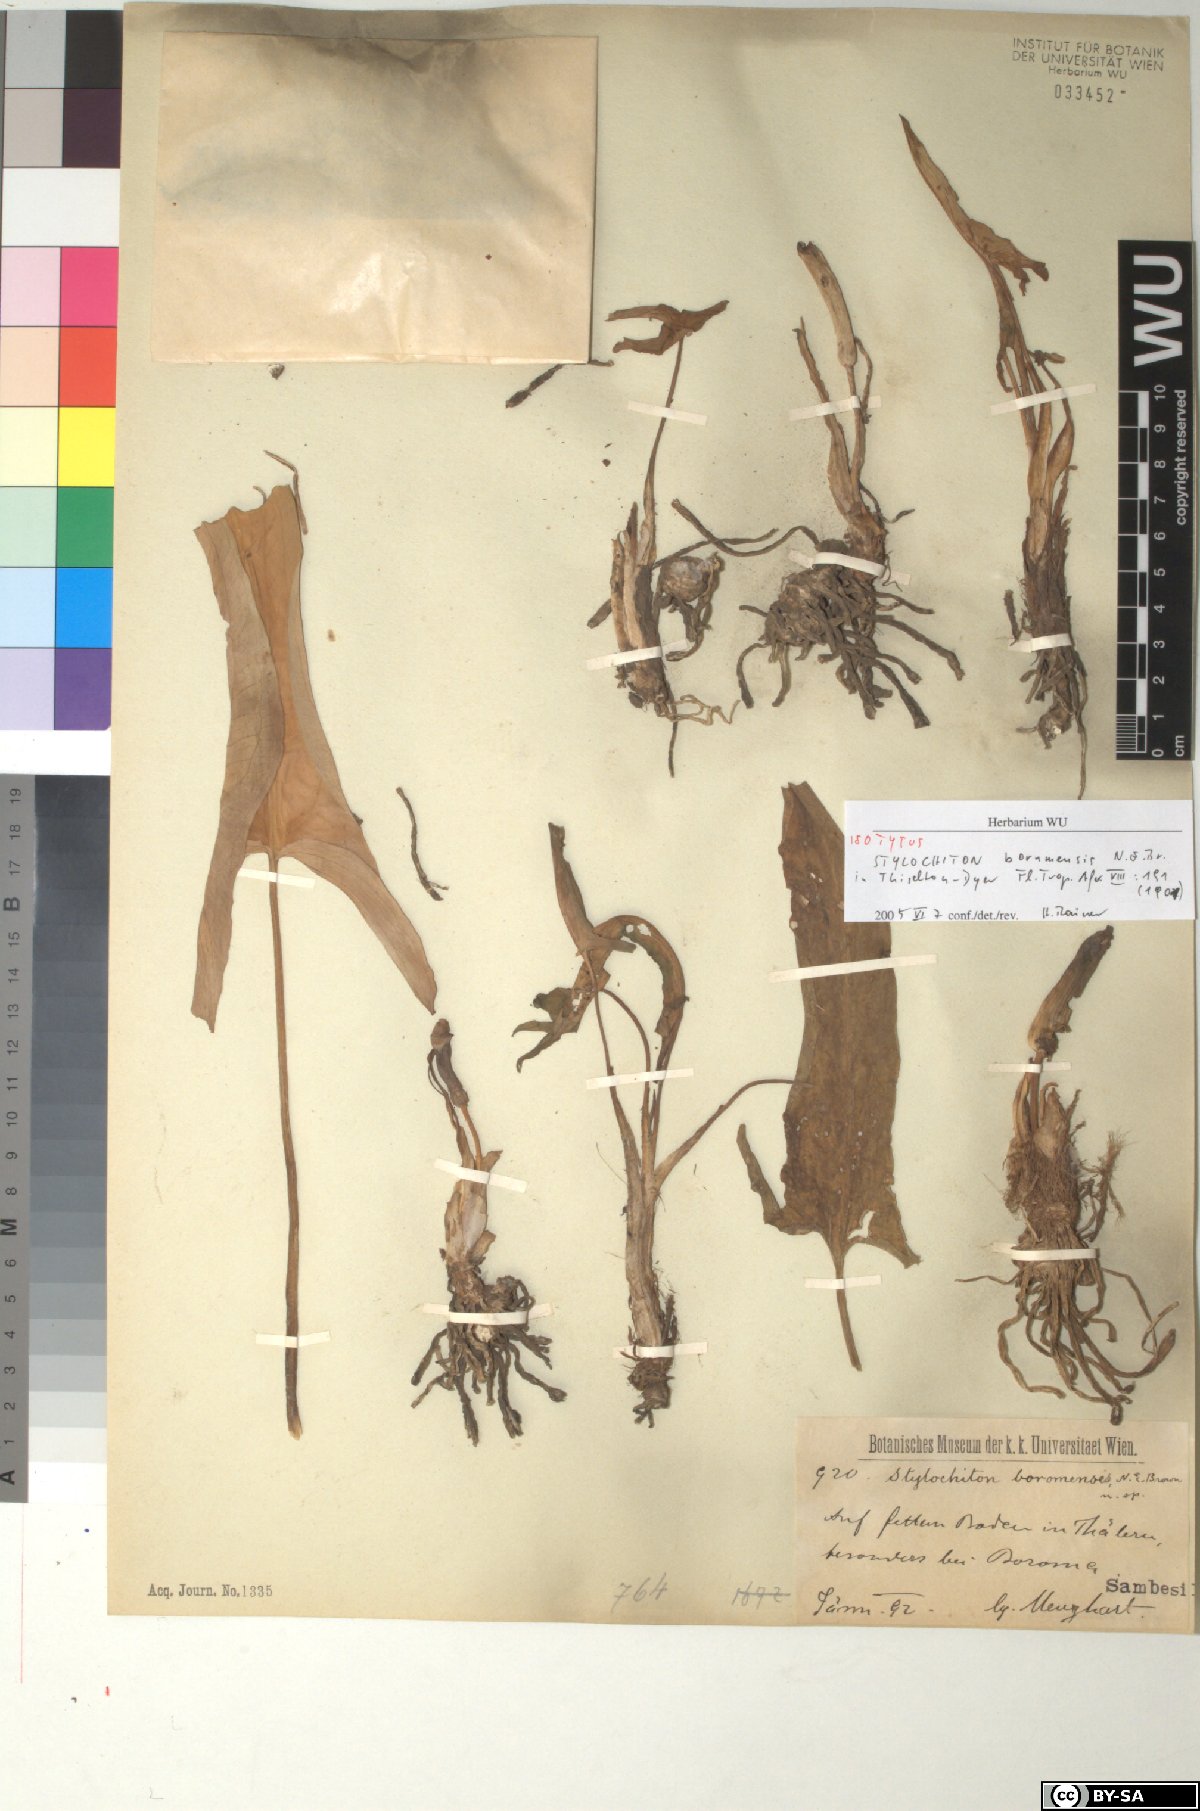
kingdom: Plantae
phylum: Tracheophyta
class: Liliopsida
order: Alismatales
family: Araceae
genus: Stylochaeton
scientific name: Stylochaeton borumense
